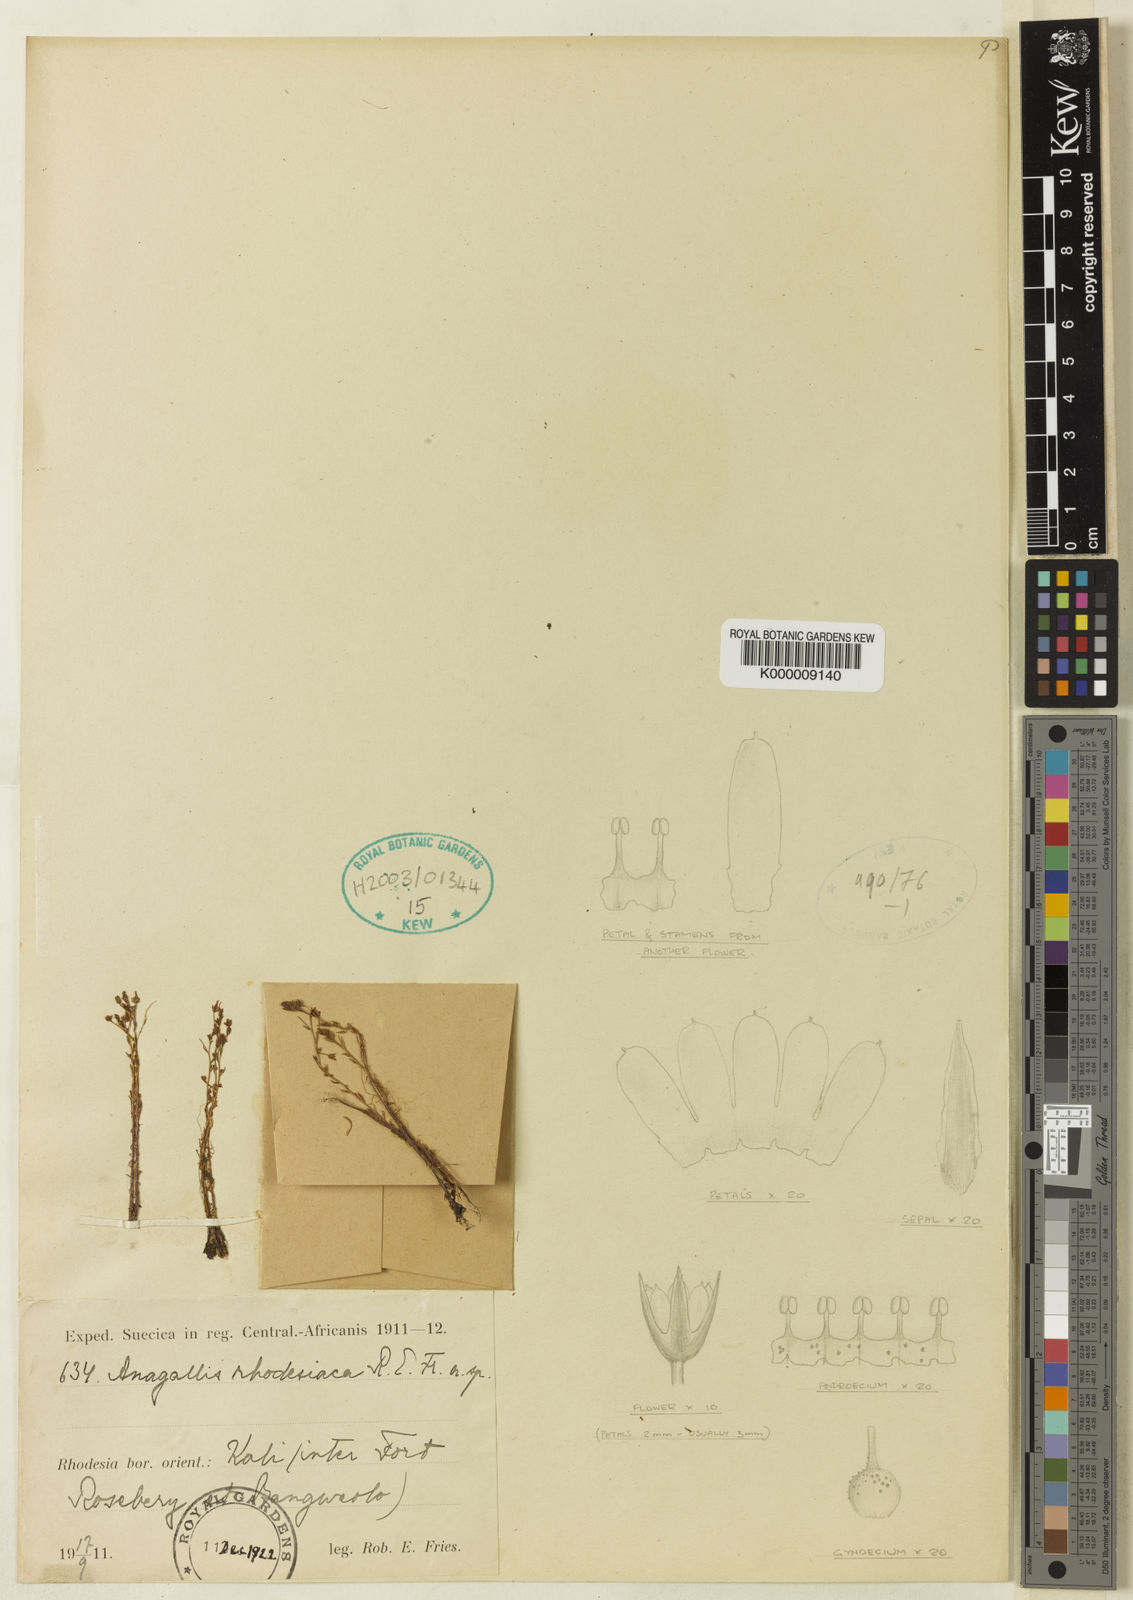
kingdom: Plantae
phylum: Tracheophyta
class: Magnoliopsida
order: Ericales
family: Primulaceae
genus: Lysimachia
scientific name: Lysimachia rhodesica
